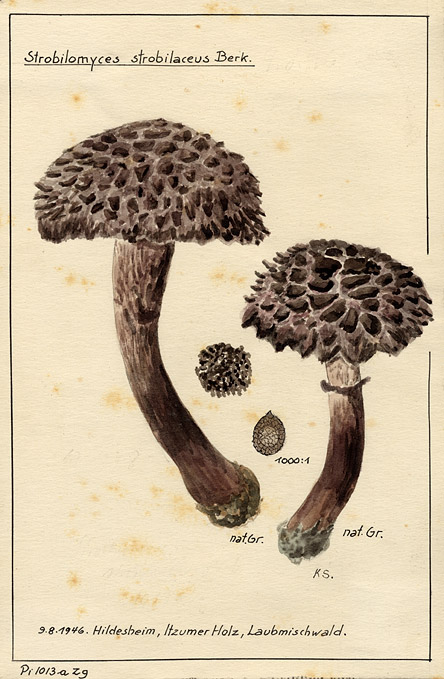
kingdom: Fungi
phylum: Basidiomycota
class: Agaricomycetes
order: Boletales
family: Boletaceae
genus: Strobilomyces
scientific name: Strobilomyces strobilaceus
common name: Old man of the woods
